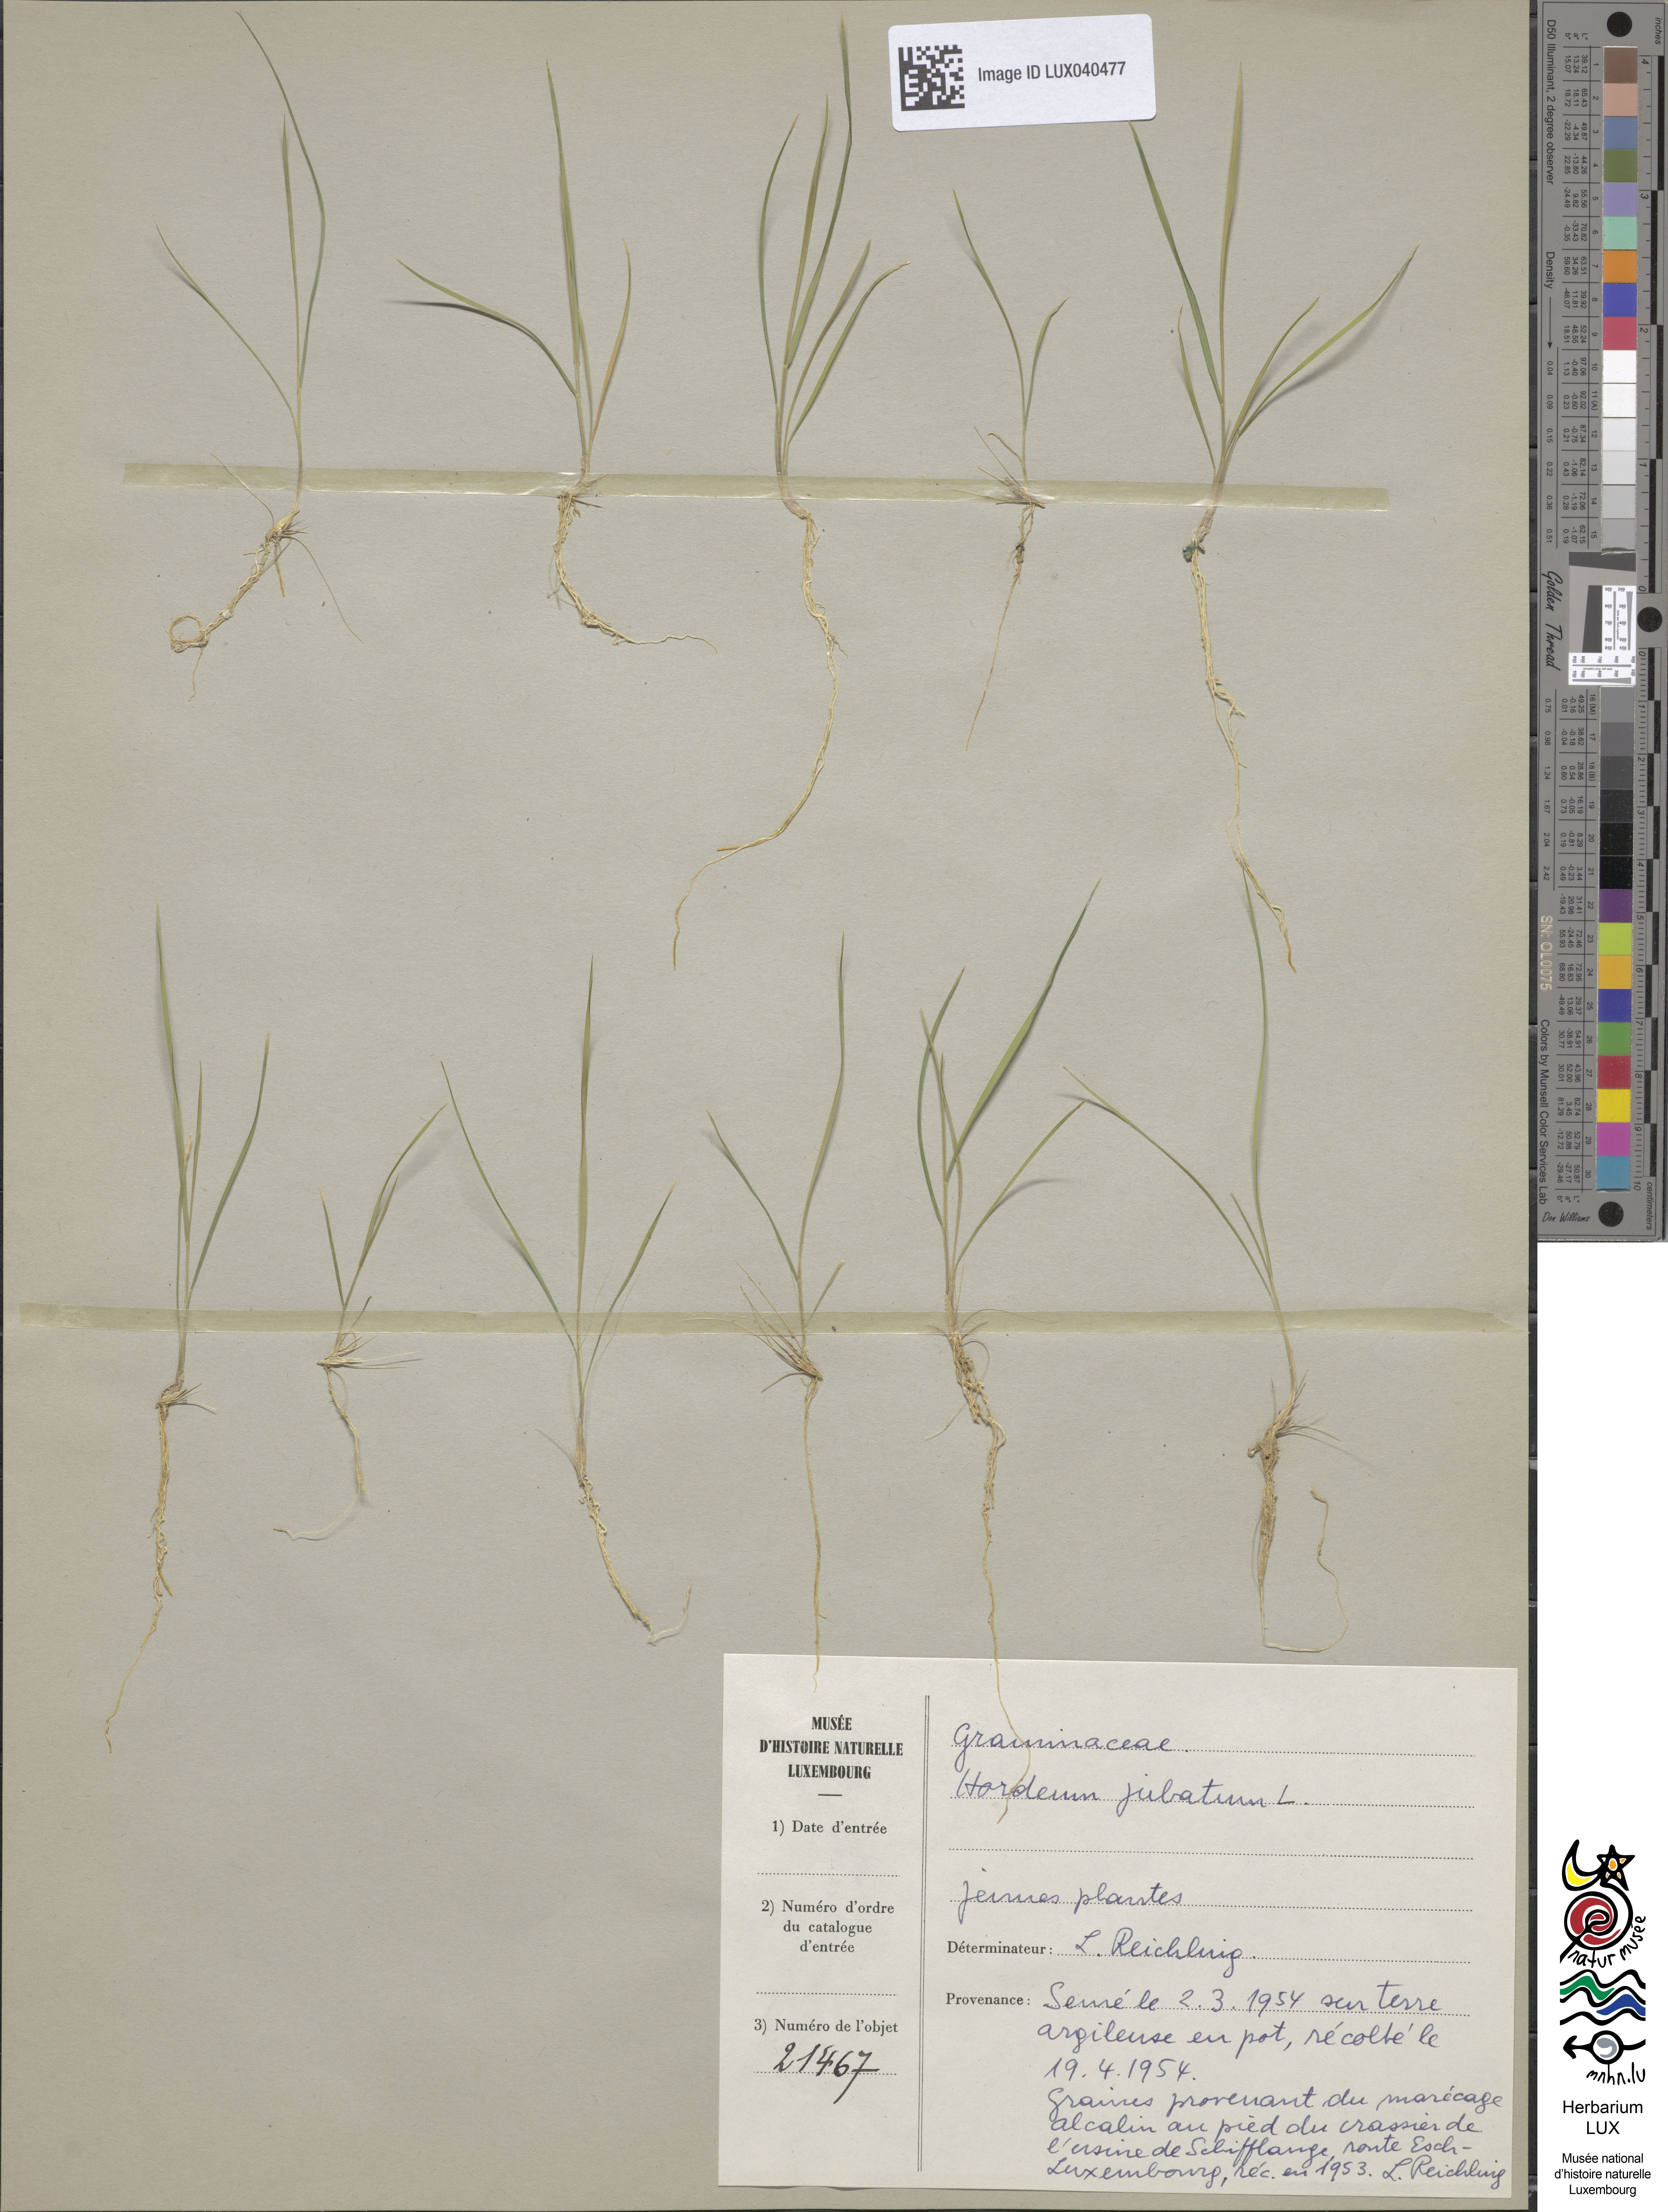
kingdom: Plantae
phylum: Tracheophyta
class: Liliopsida
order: Poales
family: Poaceae
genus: Hordeum
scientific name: Hordeum jubatum
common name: Foxtail barley
